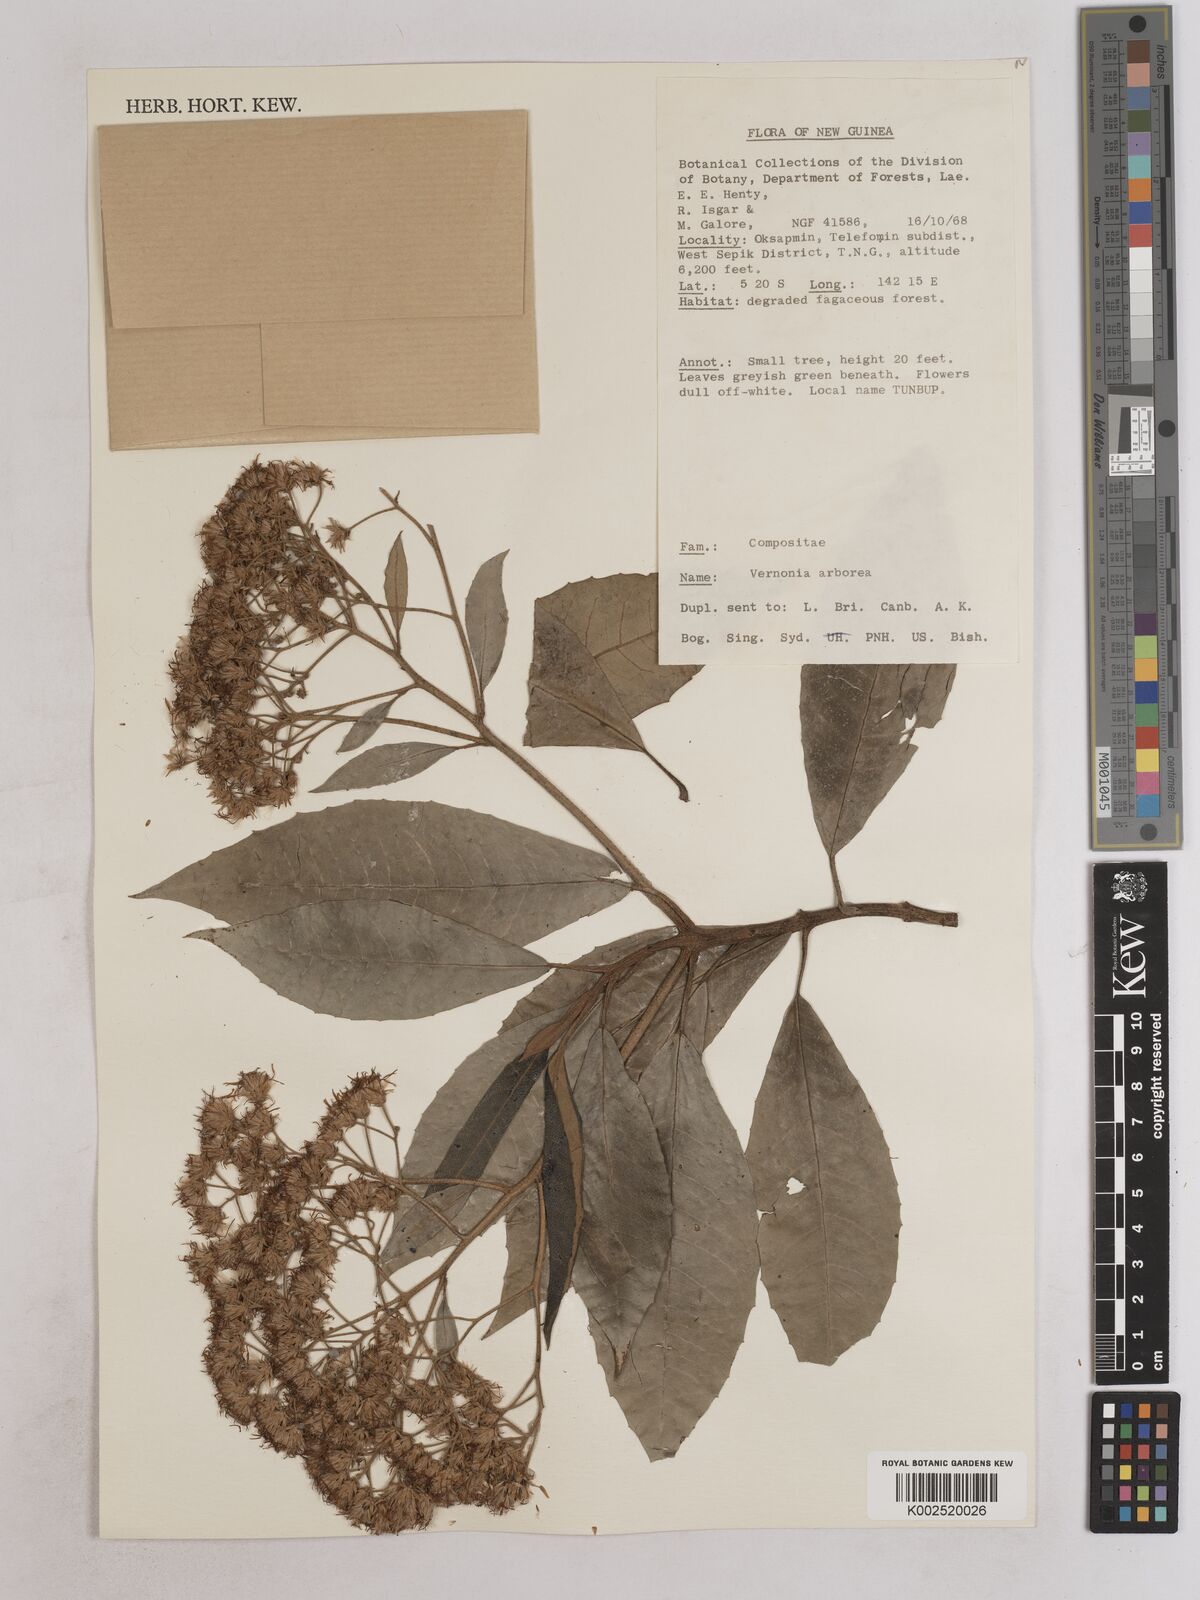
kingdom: Plantae
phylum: Tracheophyta
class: Magnoliopsida
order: Asterales
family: Asteraceae
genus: Strobocalyx
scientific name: Strobocalyx arborea
